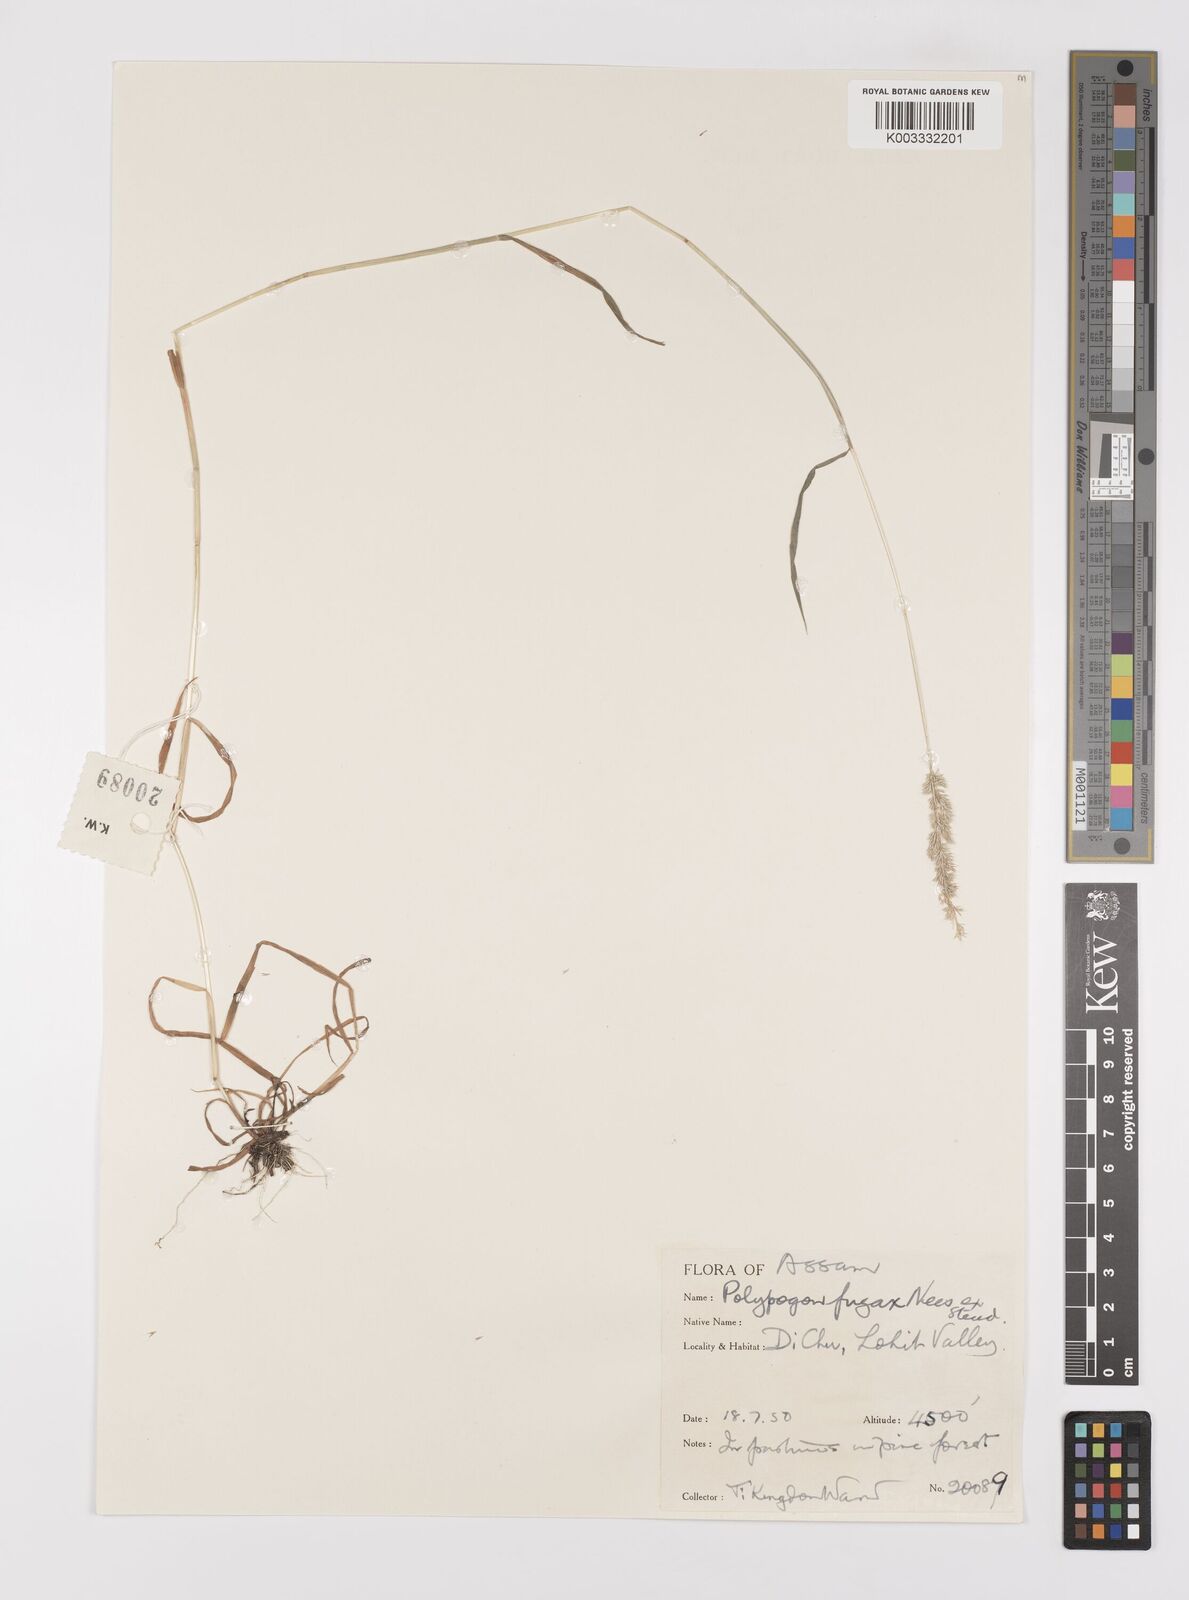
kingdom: Plantae
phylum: Tracheophyta
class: Liliopsida
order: Poales
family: Poaceae
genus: Polypogon
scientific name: Polypogon fugax
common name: Asia minor bluegrass
